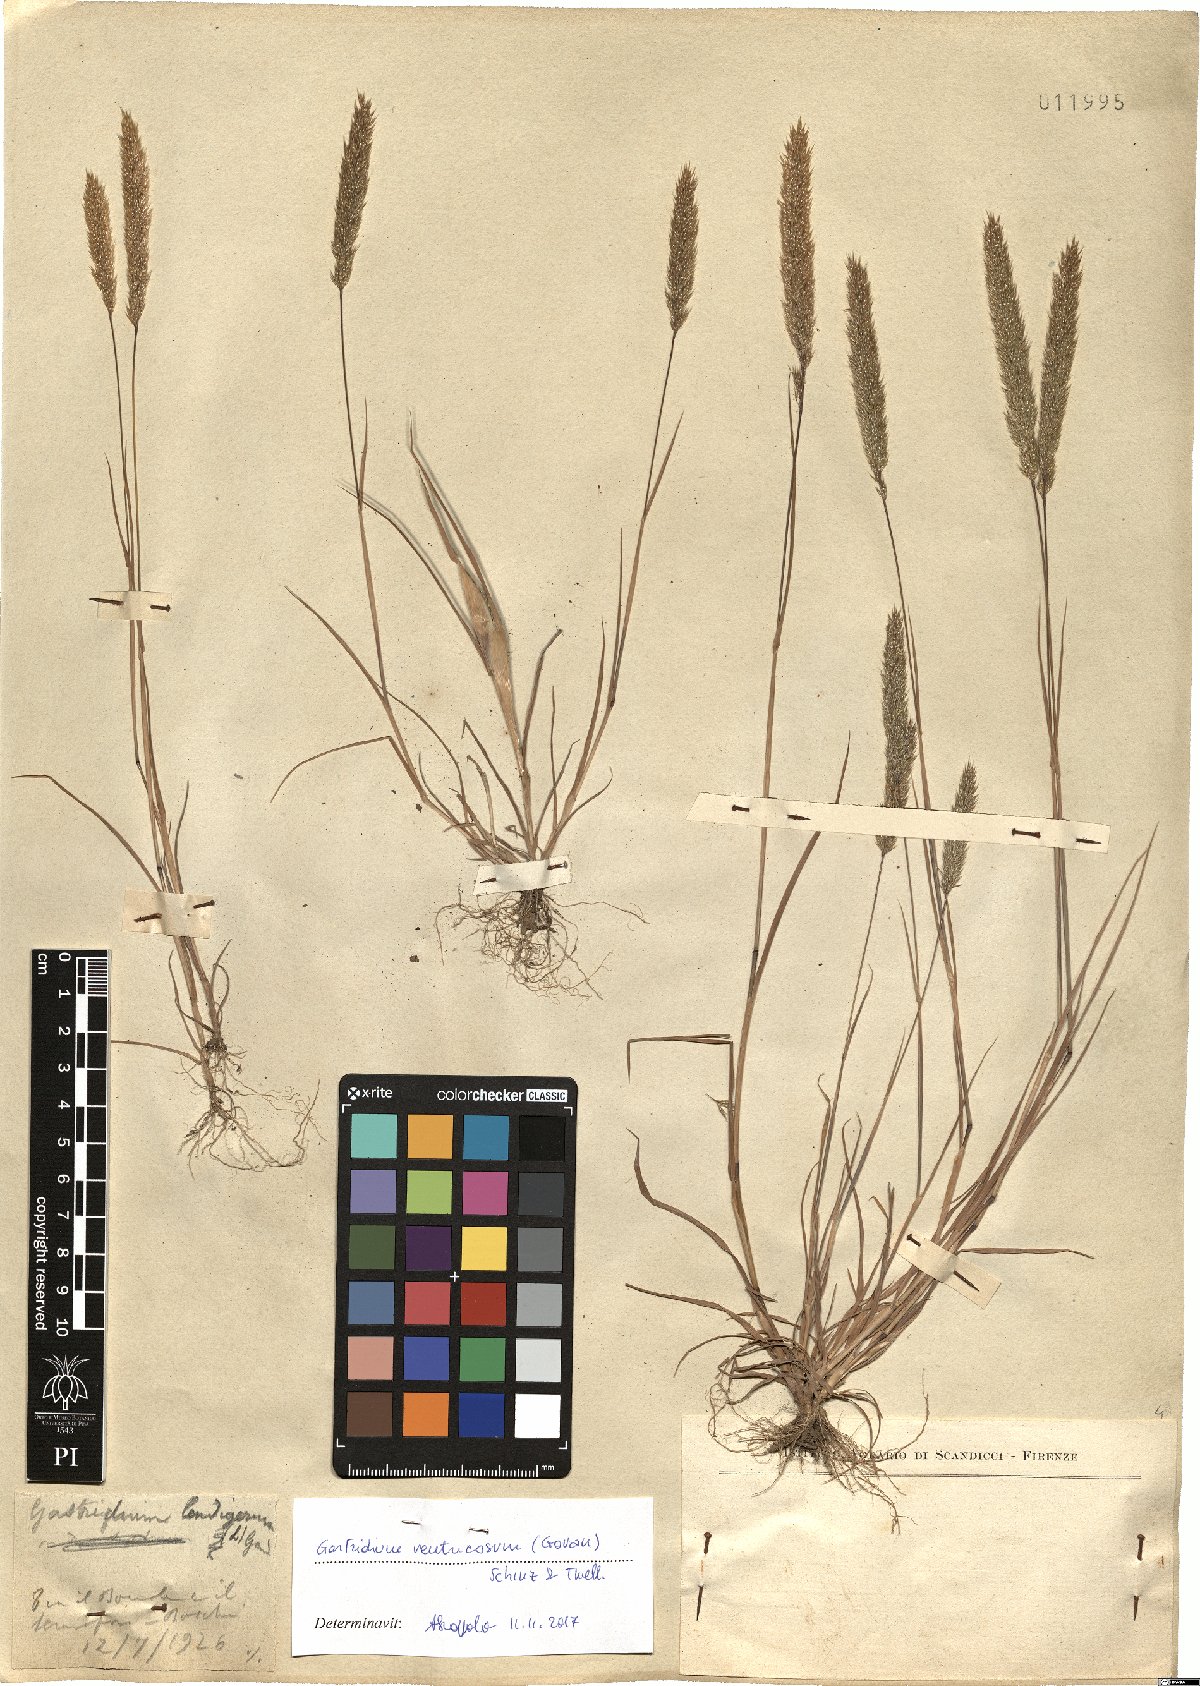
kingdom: Plantae
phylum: Tracheophyta
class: Liliopsida
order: Poales
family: Poaceae
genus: Gastridium
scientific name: Gastridium ventricosum
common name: Nit-grass
